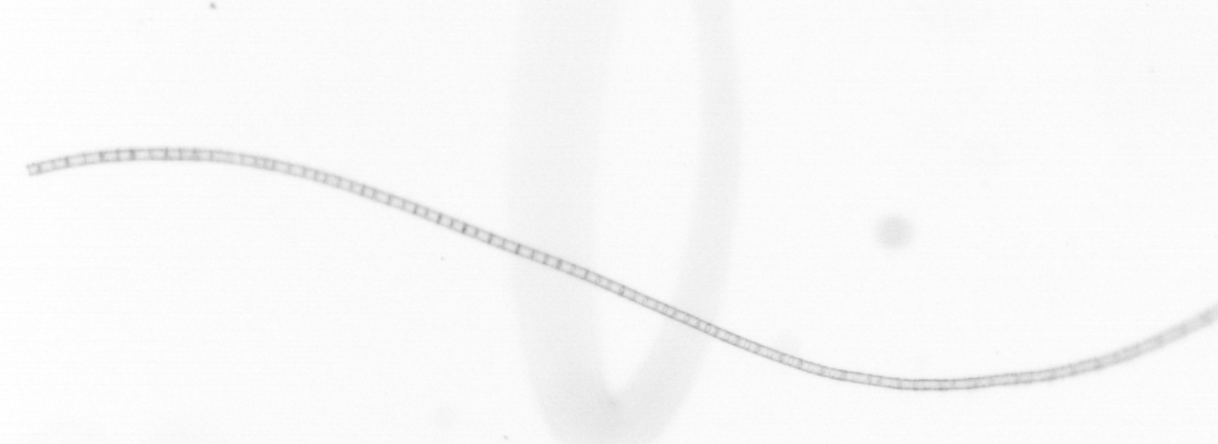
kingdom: Chromista
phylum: Ochrophyta
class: Bacillariophyceae
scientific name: Bacillariophyceae
